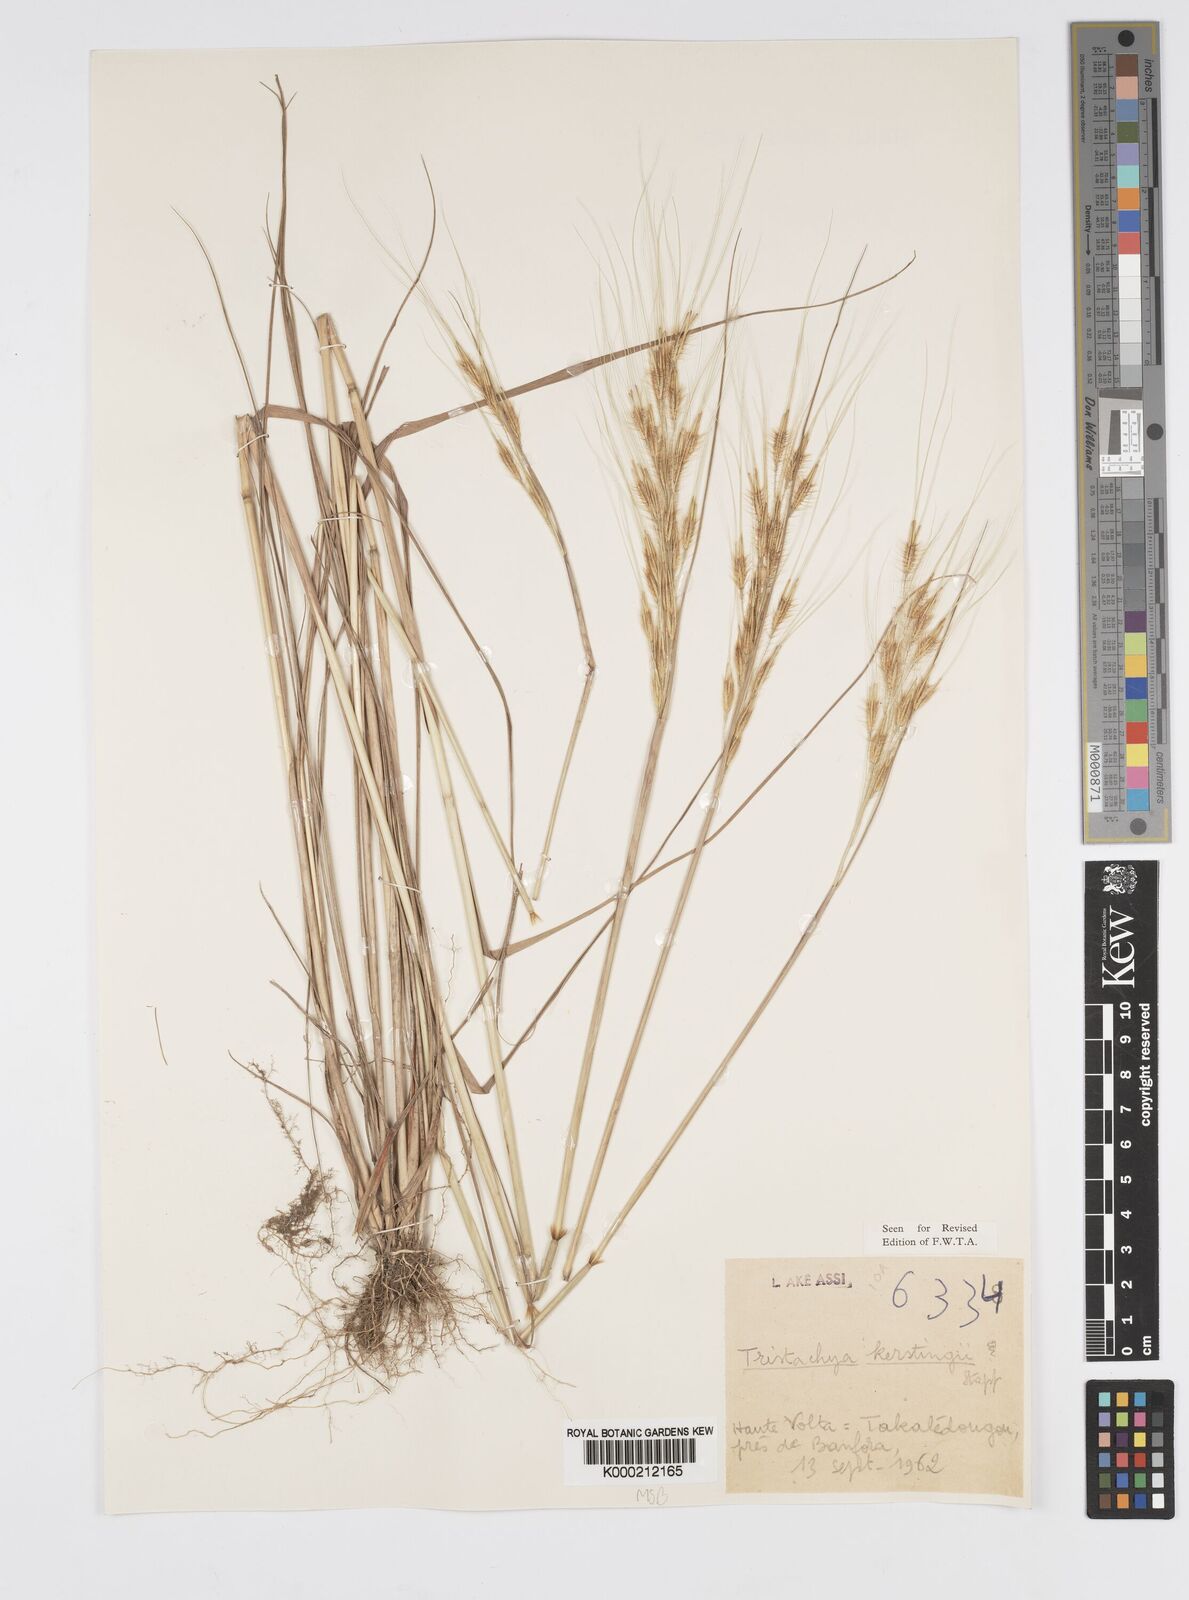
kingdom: Plantae
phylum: Tracheophyta
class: Liliopsida
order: Poales
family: Poaceae
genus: Loudetiopsis
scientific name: Loudetiopsis kerstingii
